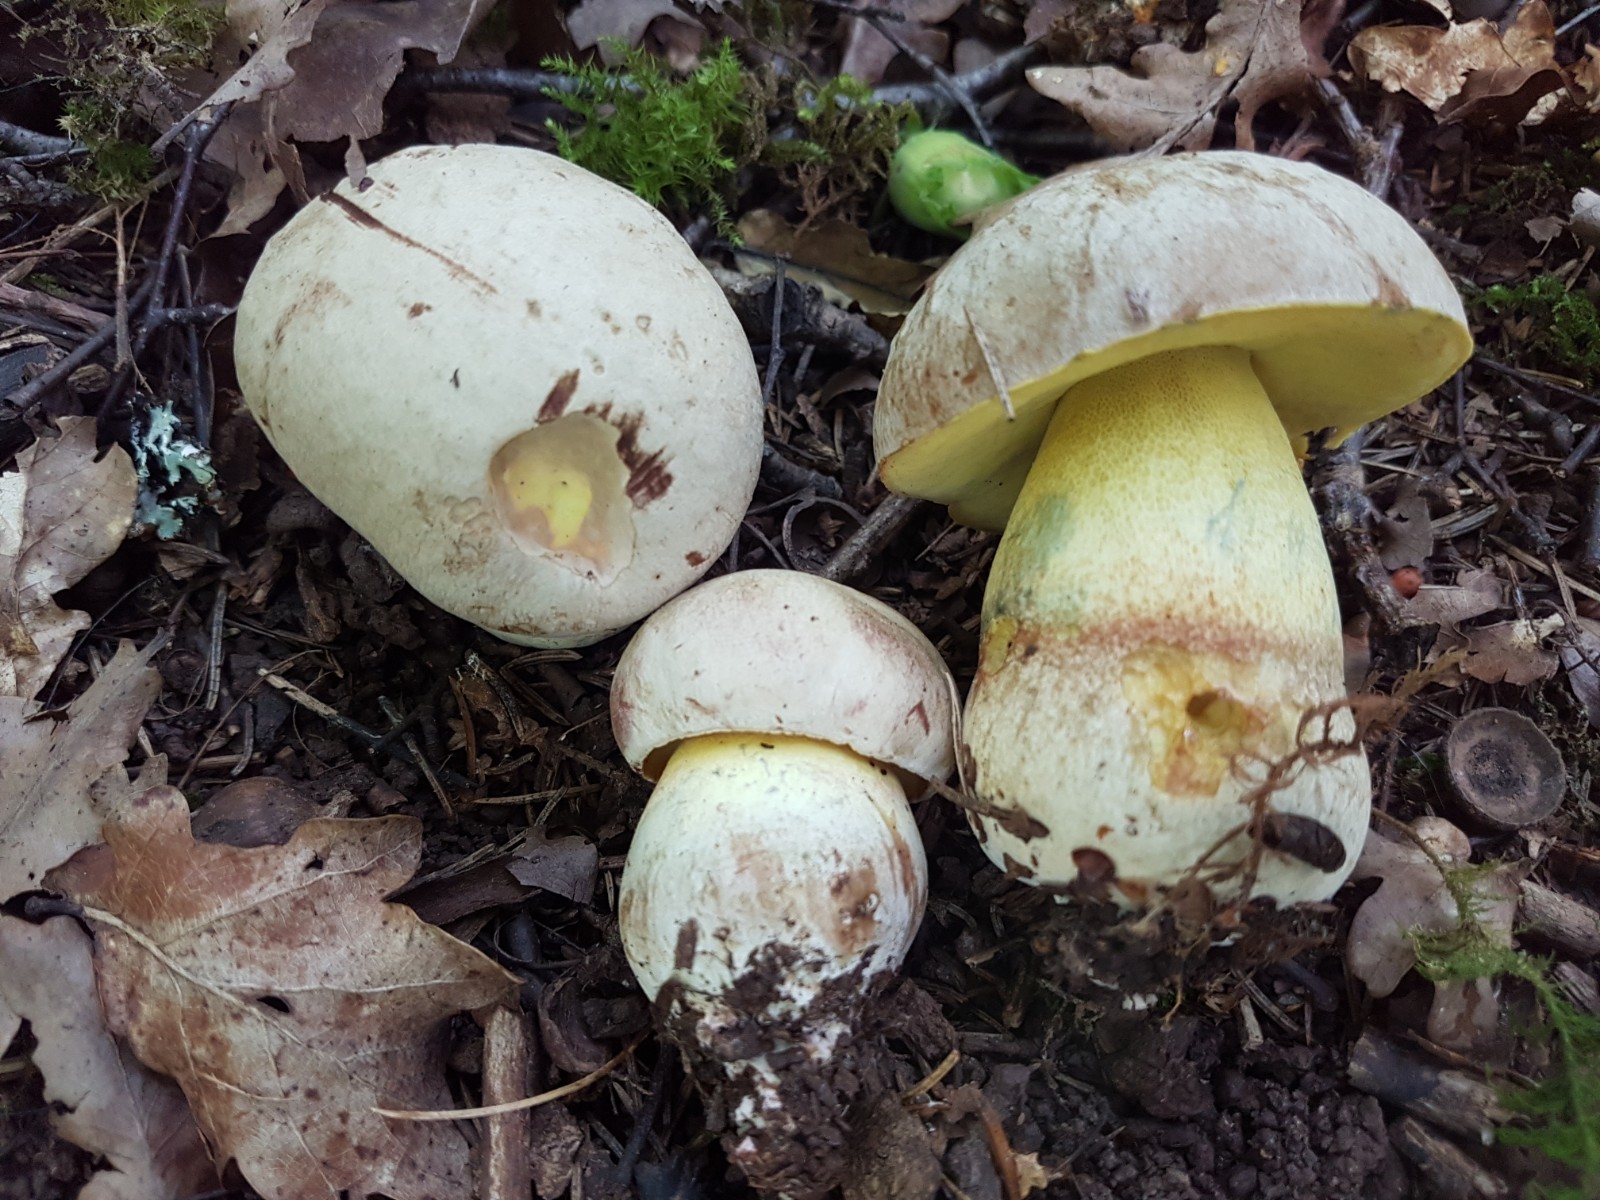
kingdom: Fungi
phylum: Basidiomycota
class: Agaricomycetes
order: Boletales
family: Boletaceae
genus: Butyriboletus
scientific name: Butyriboletus fechtneri
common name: sølvskinnende rørhat
